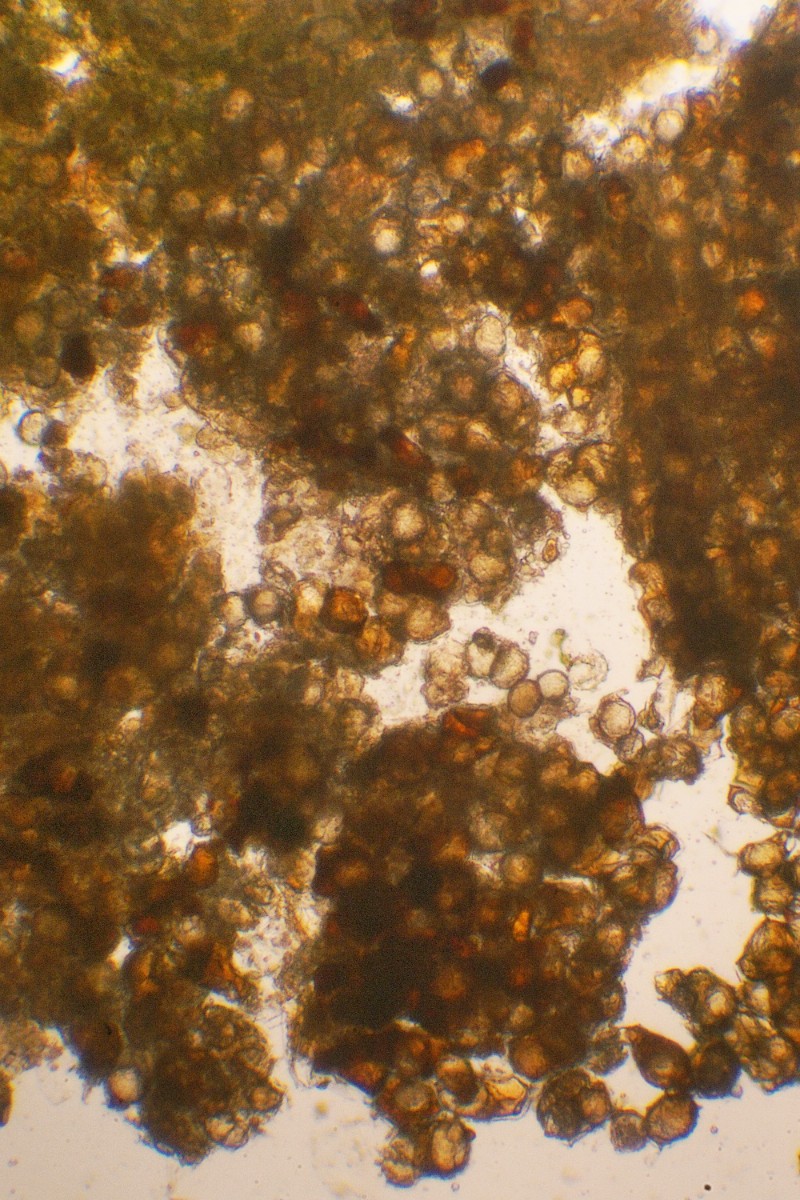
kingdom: Fungi
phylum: Chytridiomycota
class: Chytridiomycetes
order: Cladochytriales
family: Cladochytriaceae
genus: Cladochytrium
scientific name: Cladochytrium menyanthis
